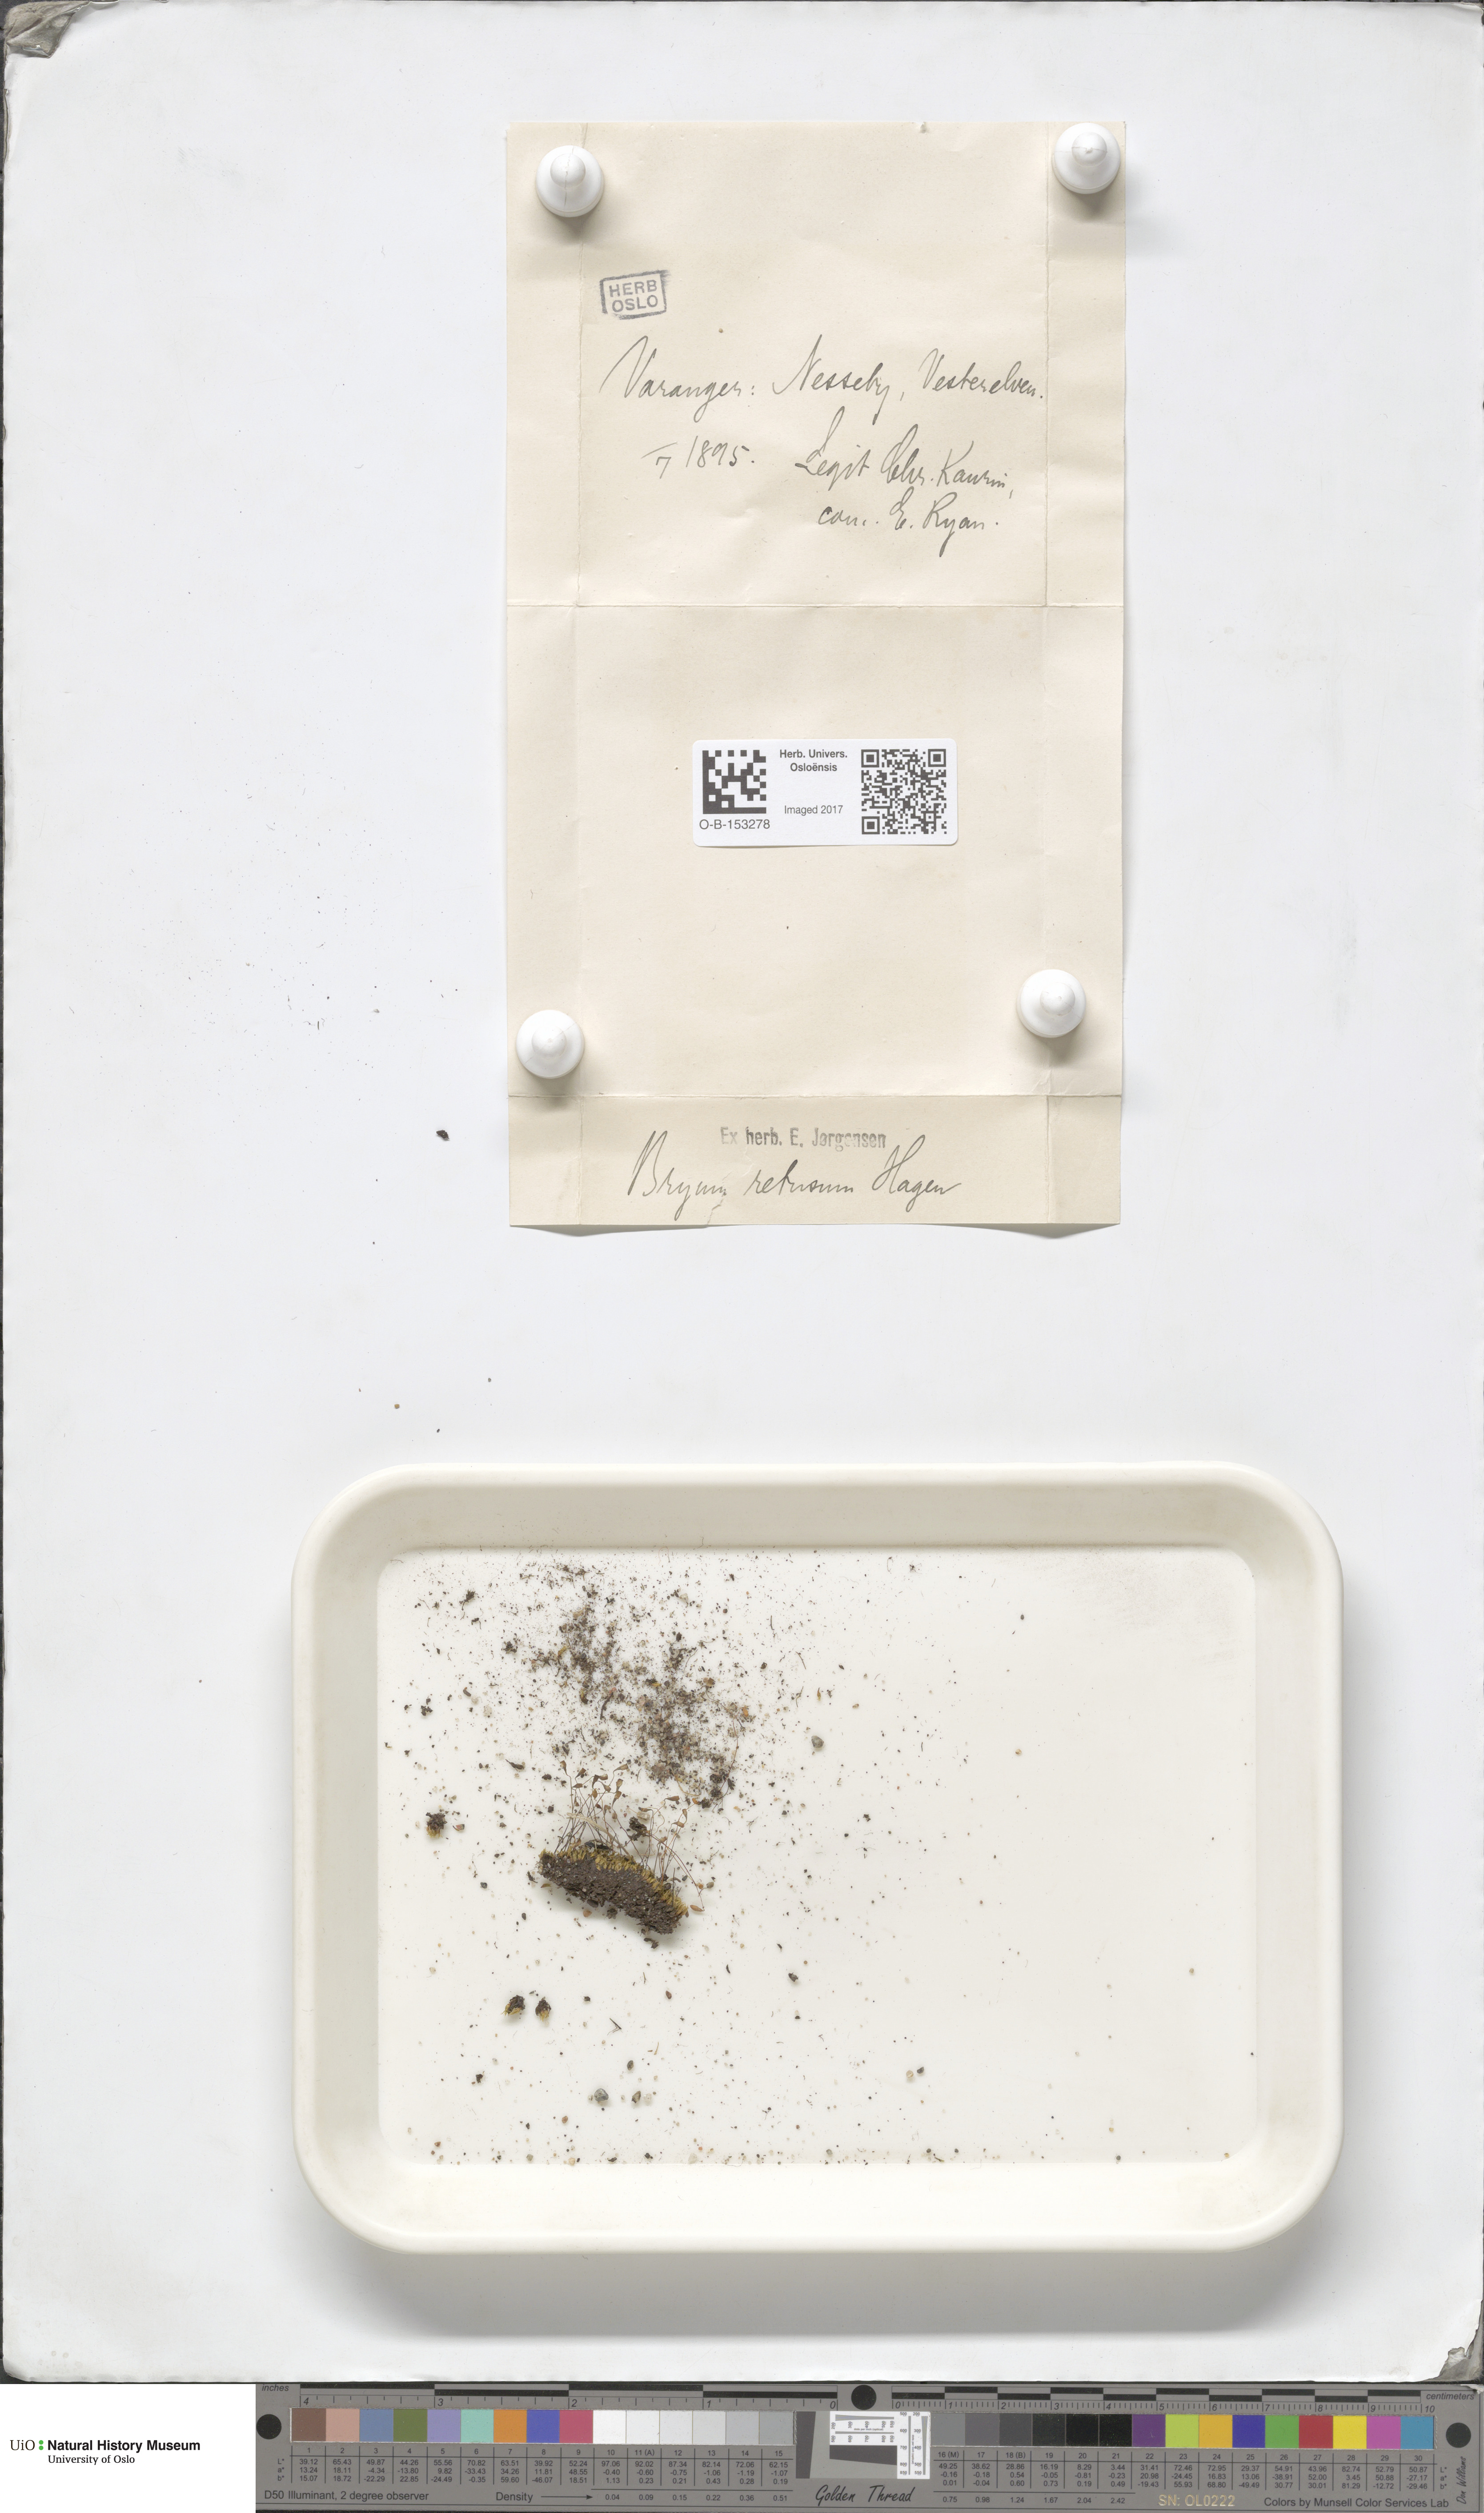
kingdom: Plantae
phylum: Bryophyta
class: Bryopsida
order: Bryales
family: Bryaceae
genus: Ptychostomum
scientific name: Ptychostomum inclinatum
